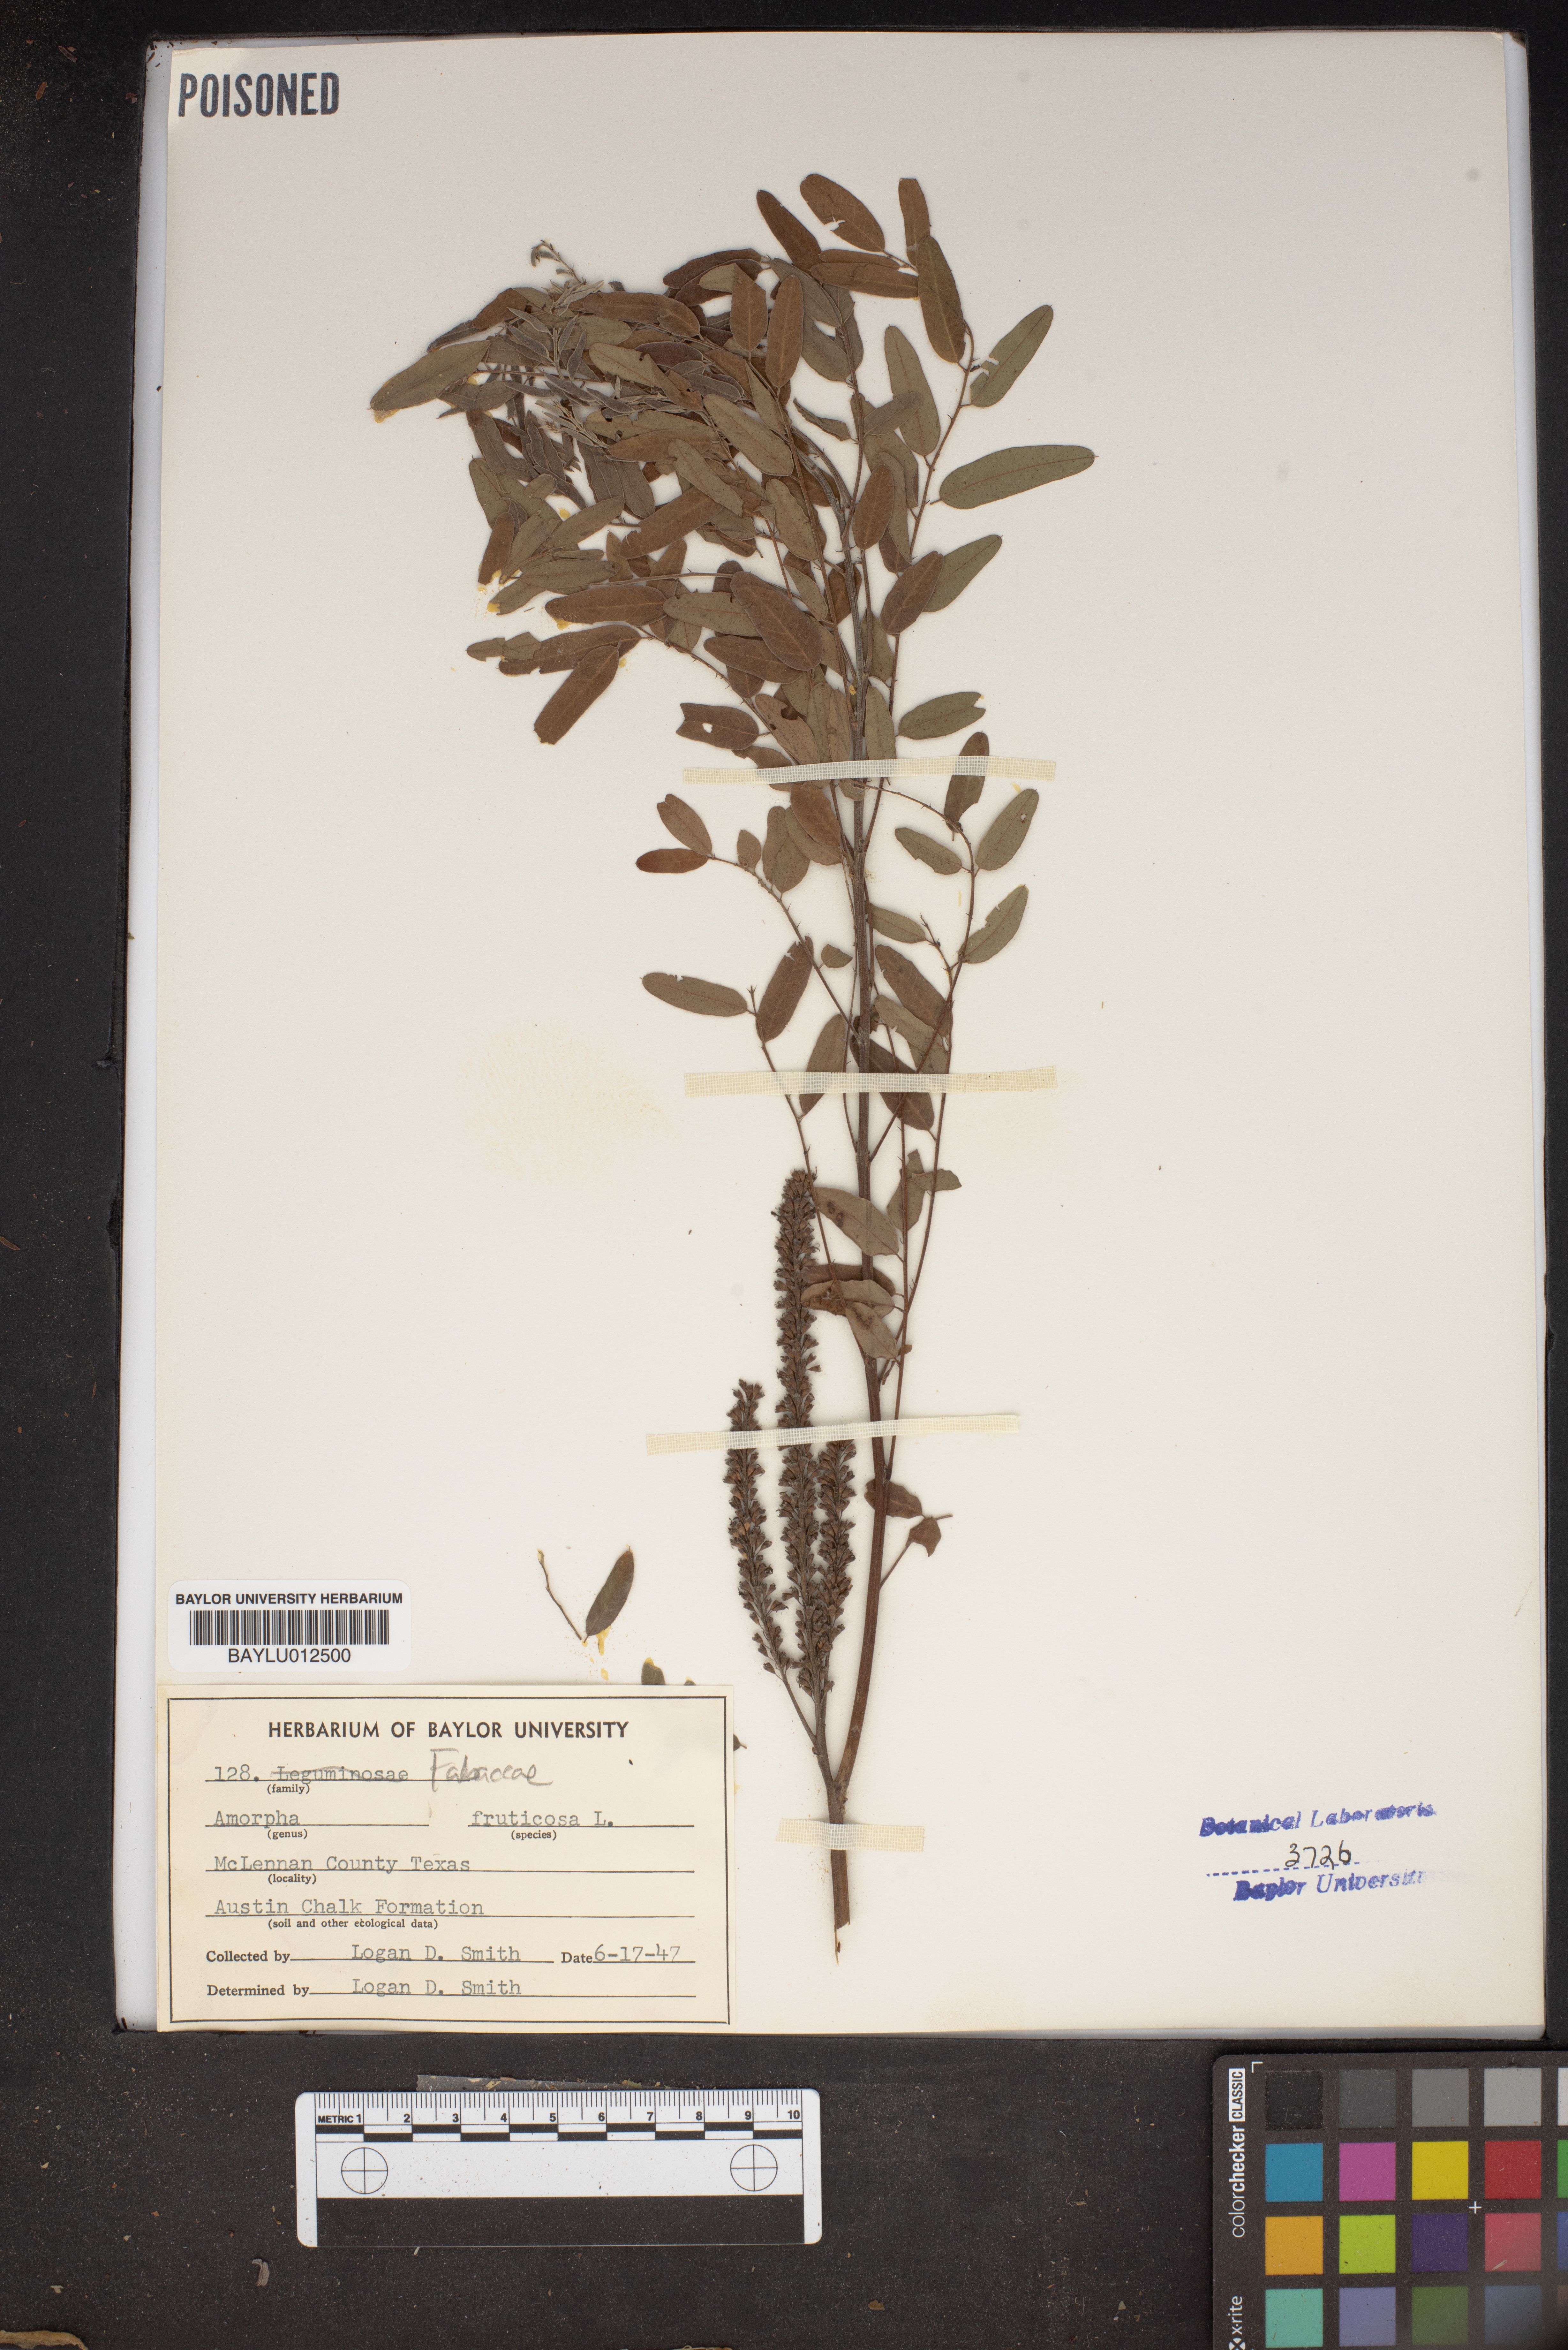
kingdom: Plantae
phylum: Tracheophyta
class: Magnoliopsida
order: Fabales
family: Fabaceae
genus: Amorpha
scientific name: Amorpha fruticosa
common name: False indigo
